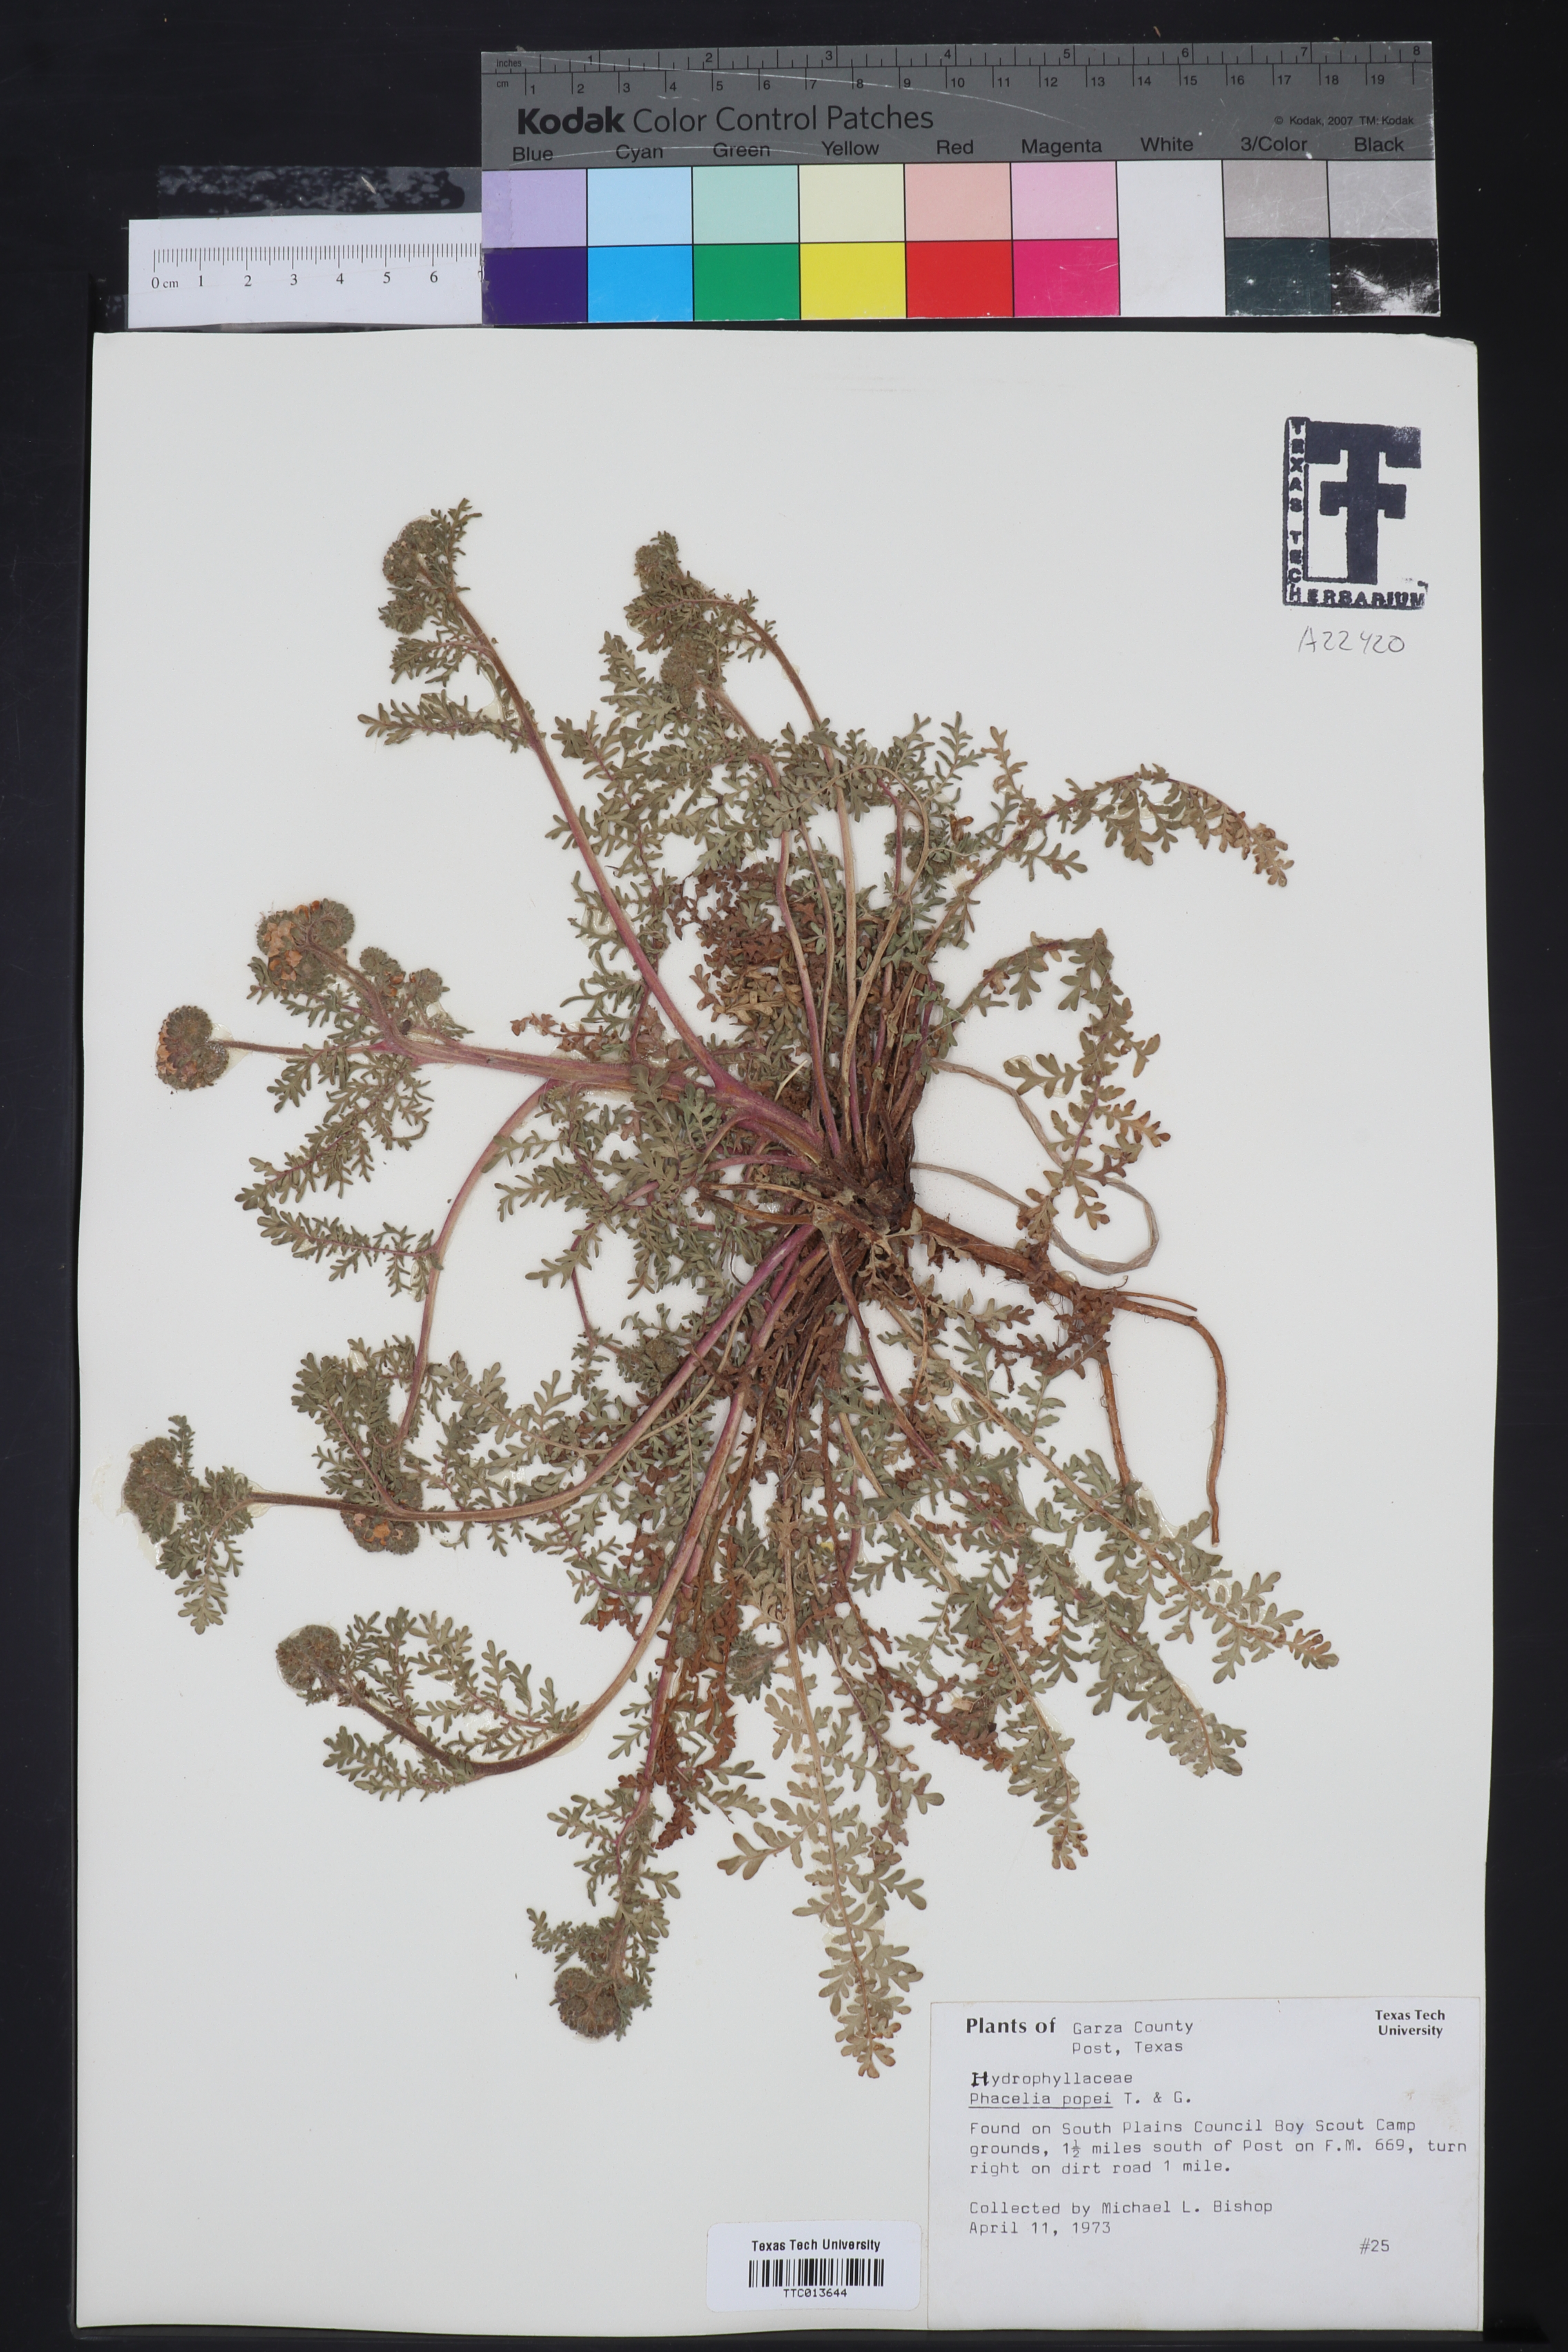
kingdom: Plantae
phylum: Tracheophyta
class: Magnoliopsida
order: Boraginales
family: Hydrophyllaceae
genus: Phacelia
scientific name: Phacelia popei
